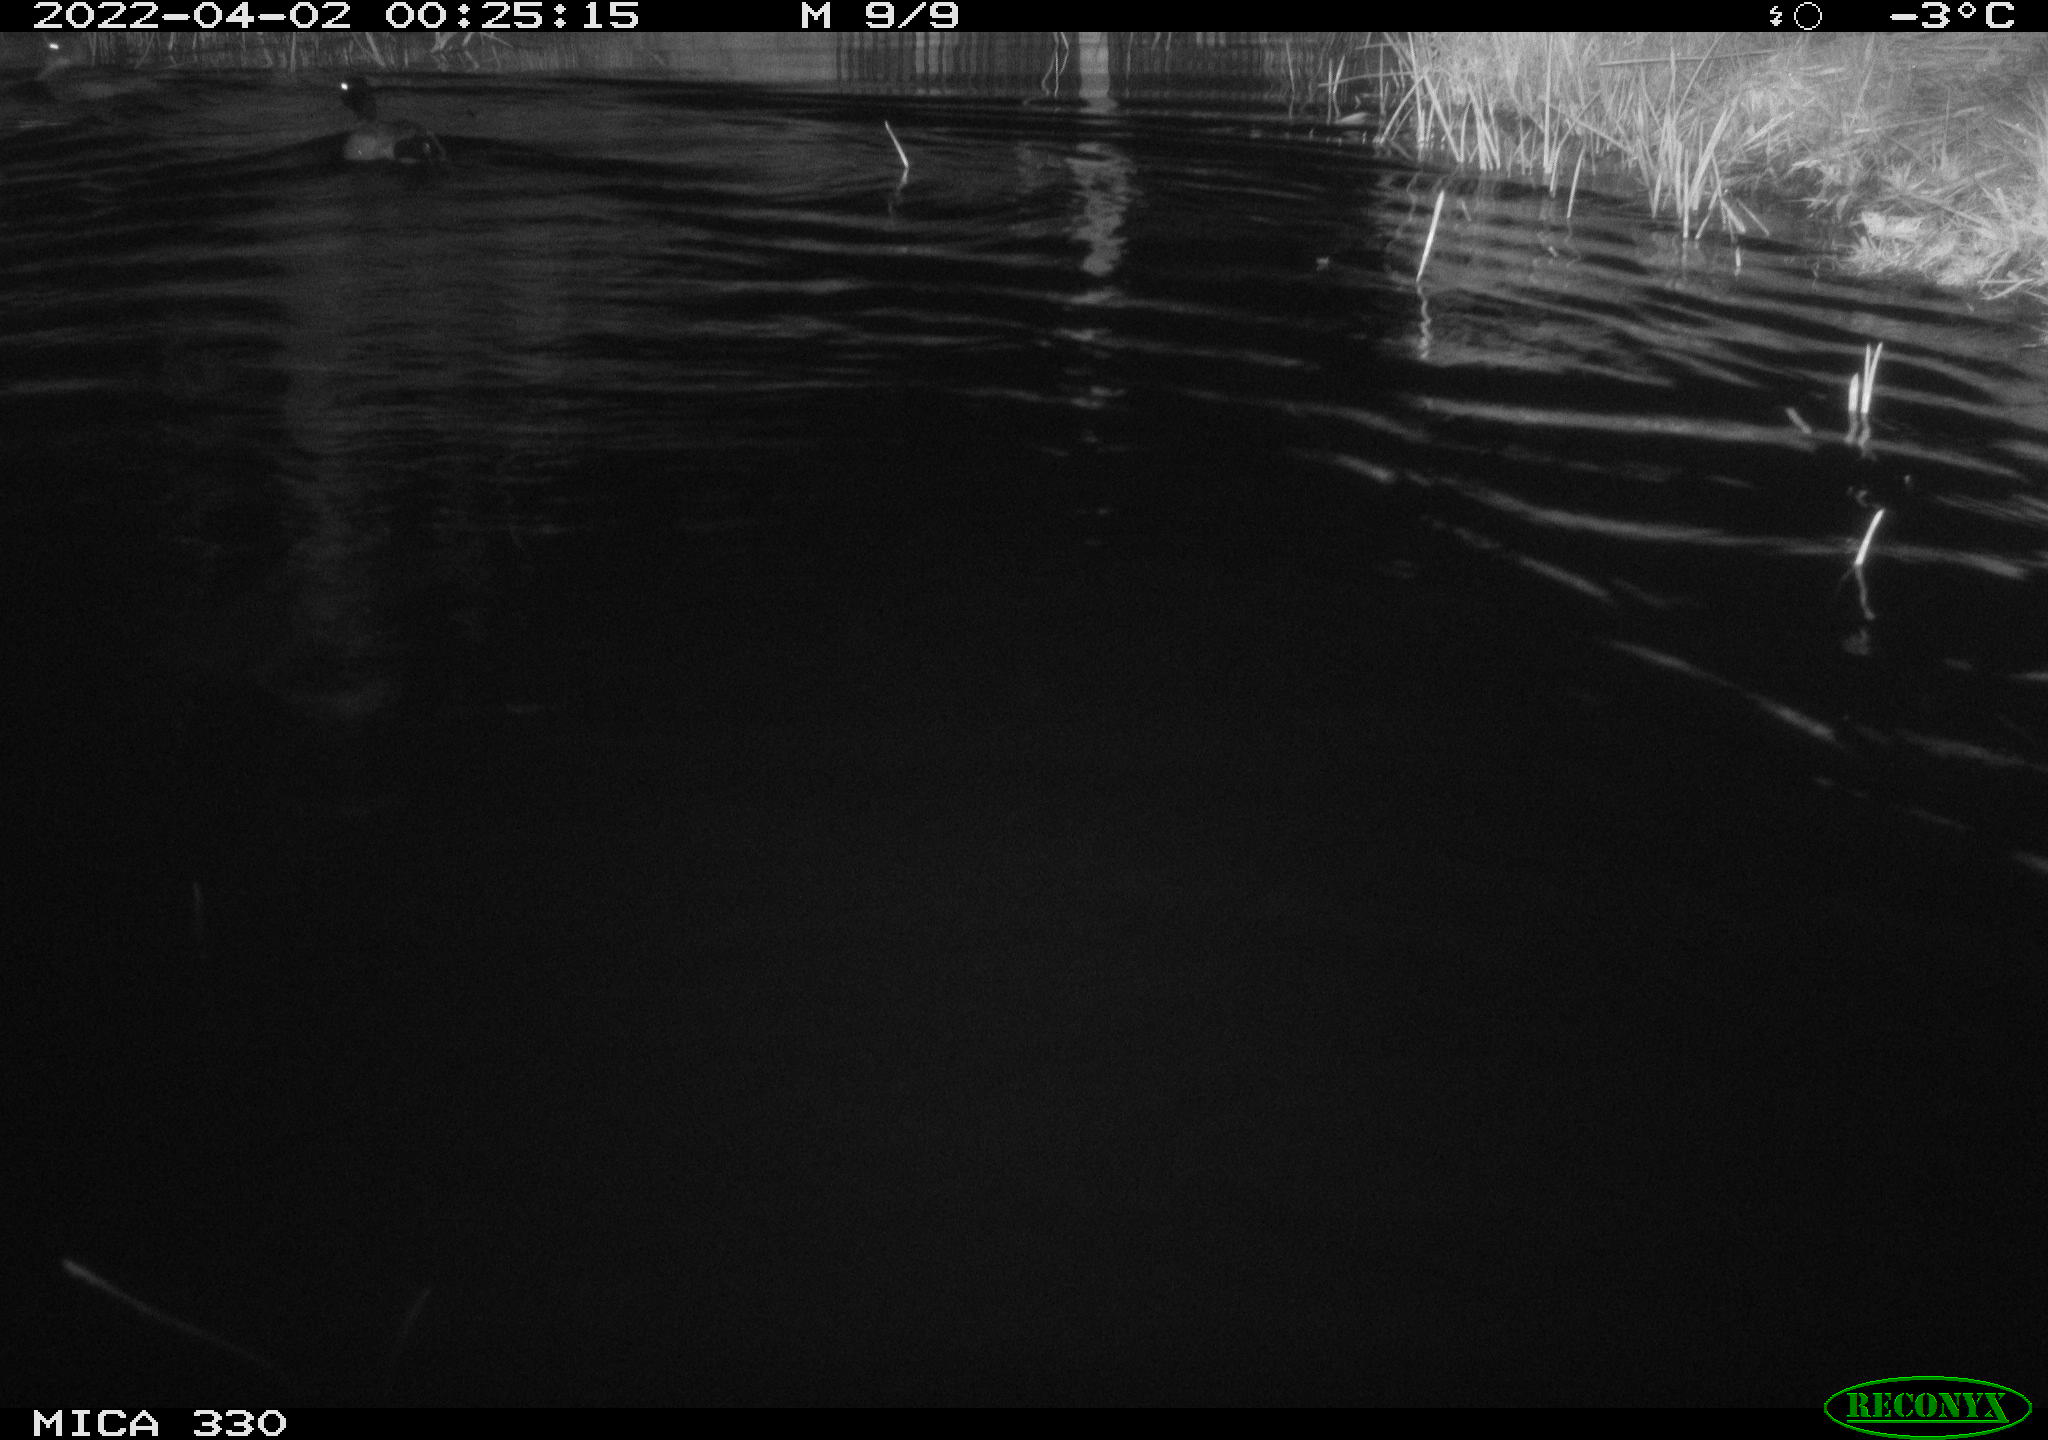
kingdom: Animalia
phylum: Chordata
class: Aves
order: Anseriformes
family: Anatidae
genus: Anas
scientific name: Anas platyrhynchos
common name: Mallard
